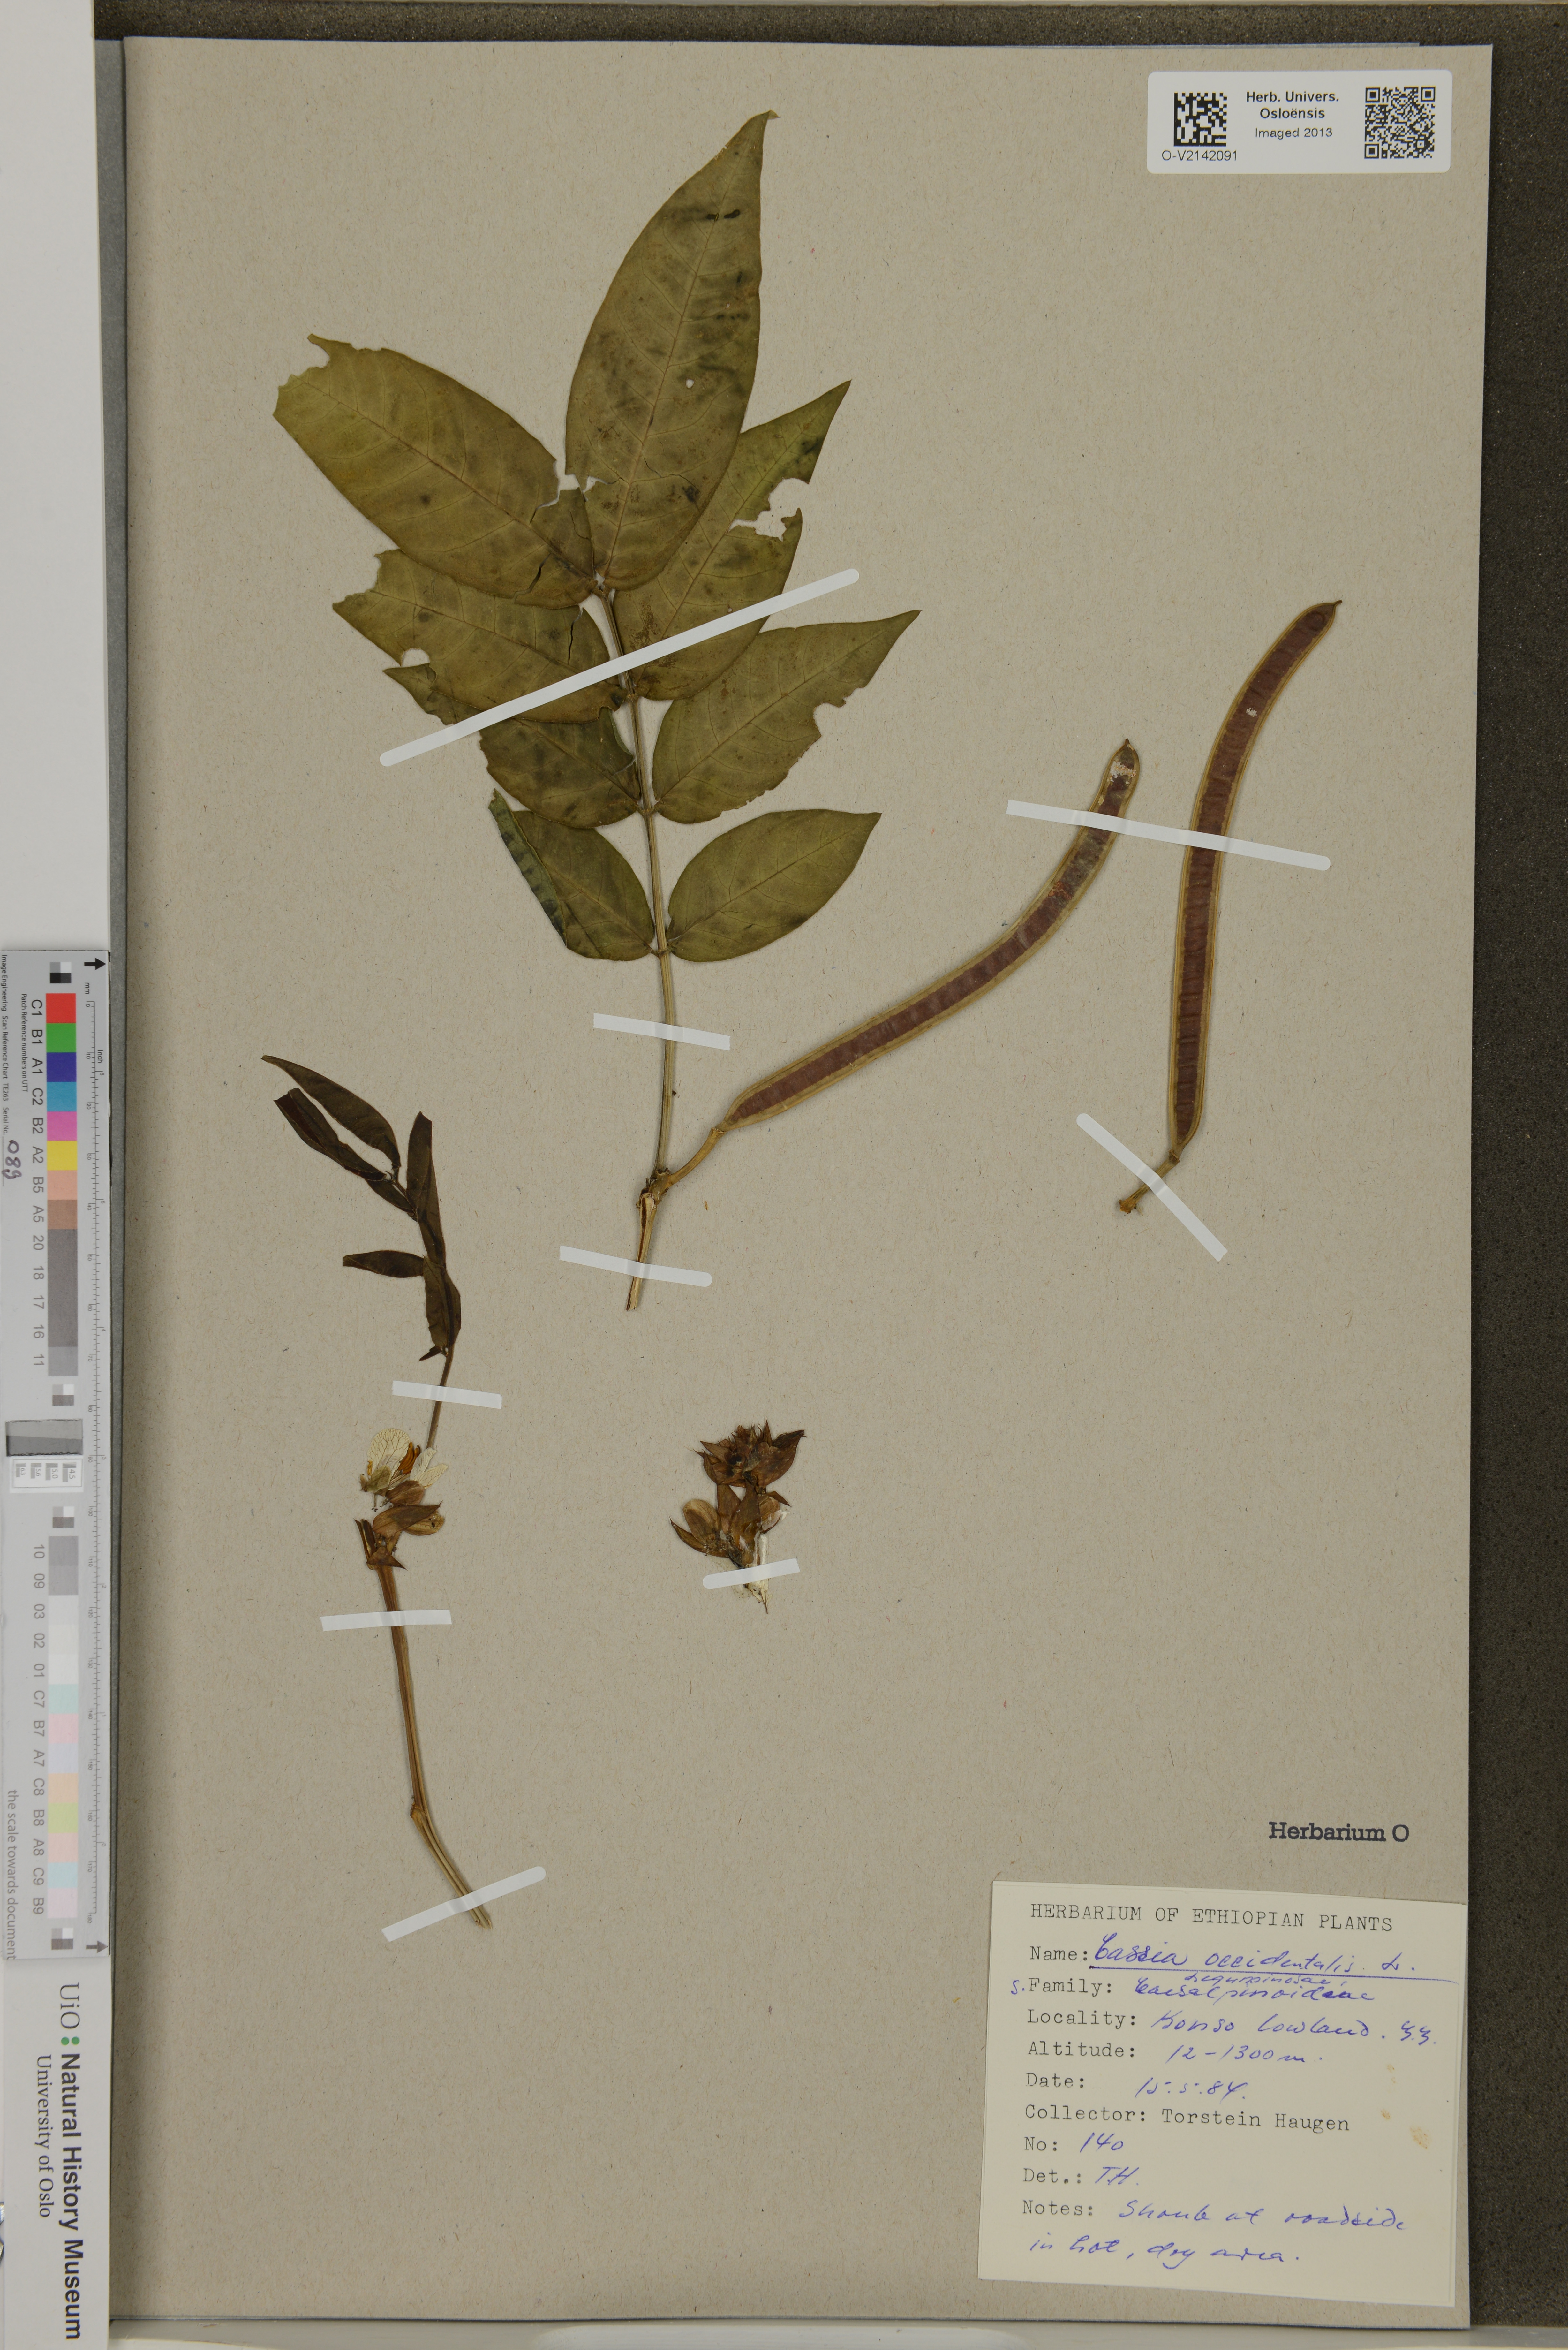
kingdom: Plantae
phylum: Tracheophyta
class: Magnoliopsida
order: Fabales
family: Fabaceae
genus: Senna
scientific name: Senna occidentalis
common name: Septicweed
